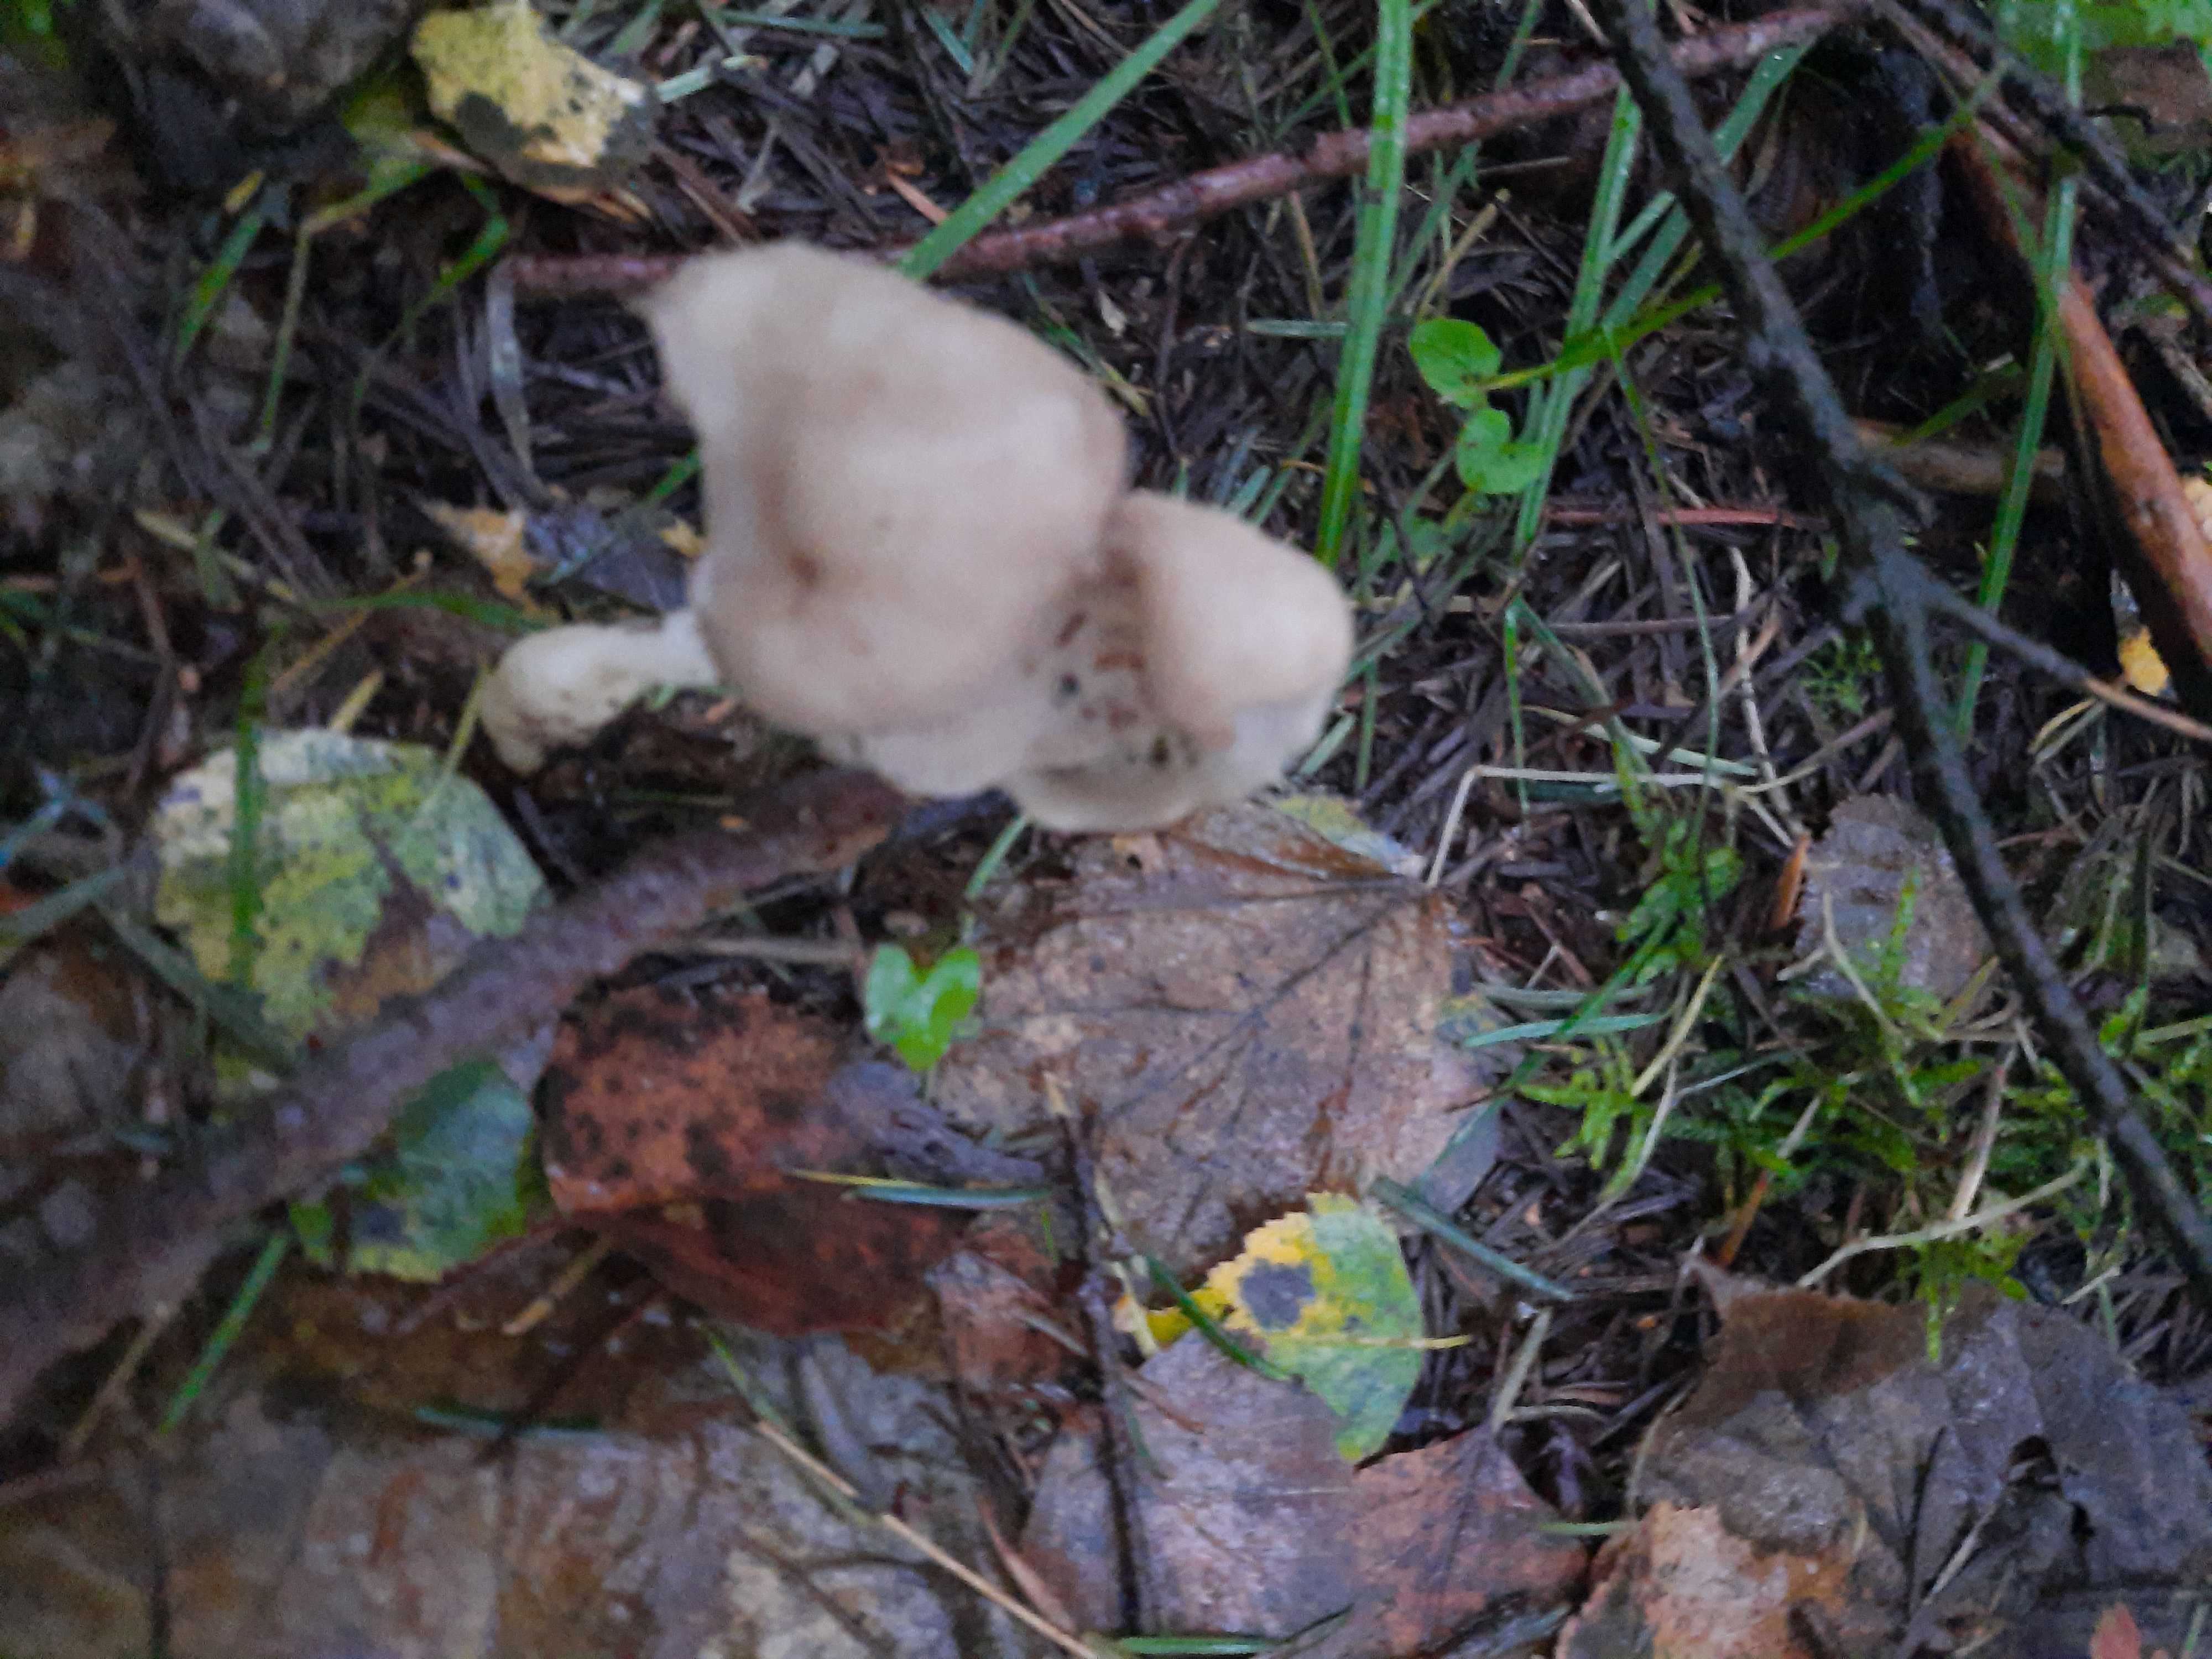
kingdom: Fungi
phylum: Ascomycota
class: Pezizomycetes
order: Pezizales
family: Helvellaceae
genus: Helvella
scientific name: Helvella elastica
